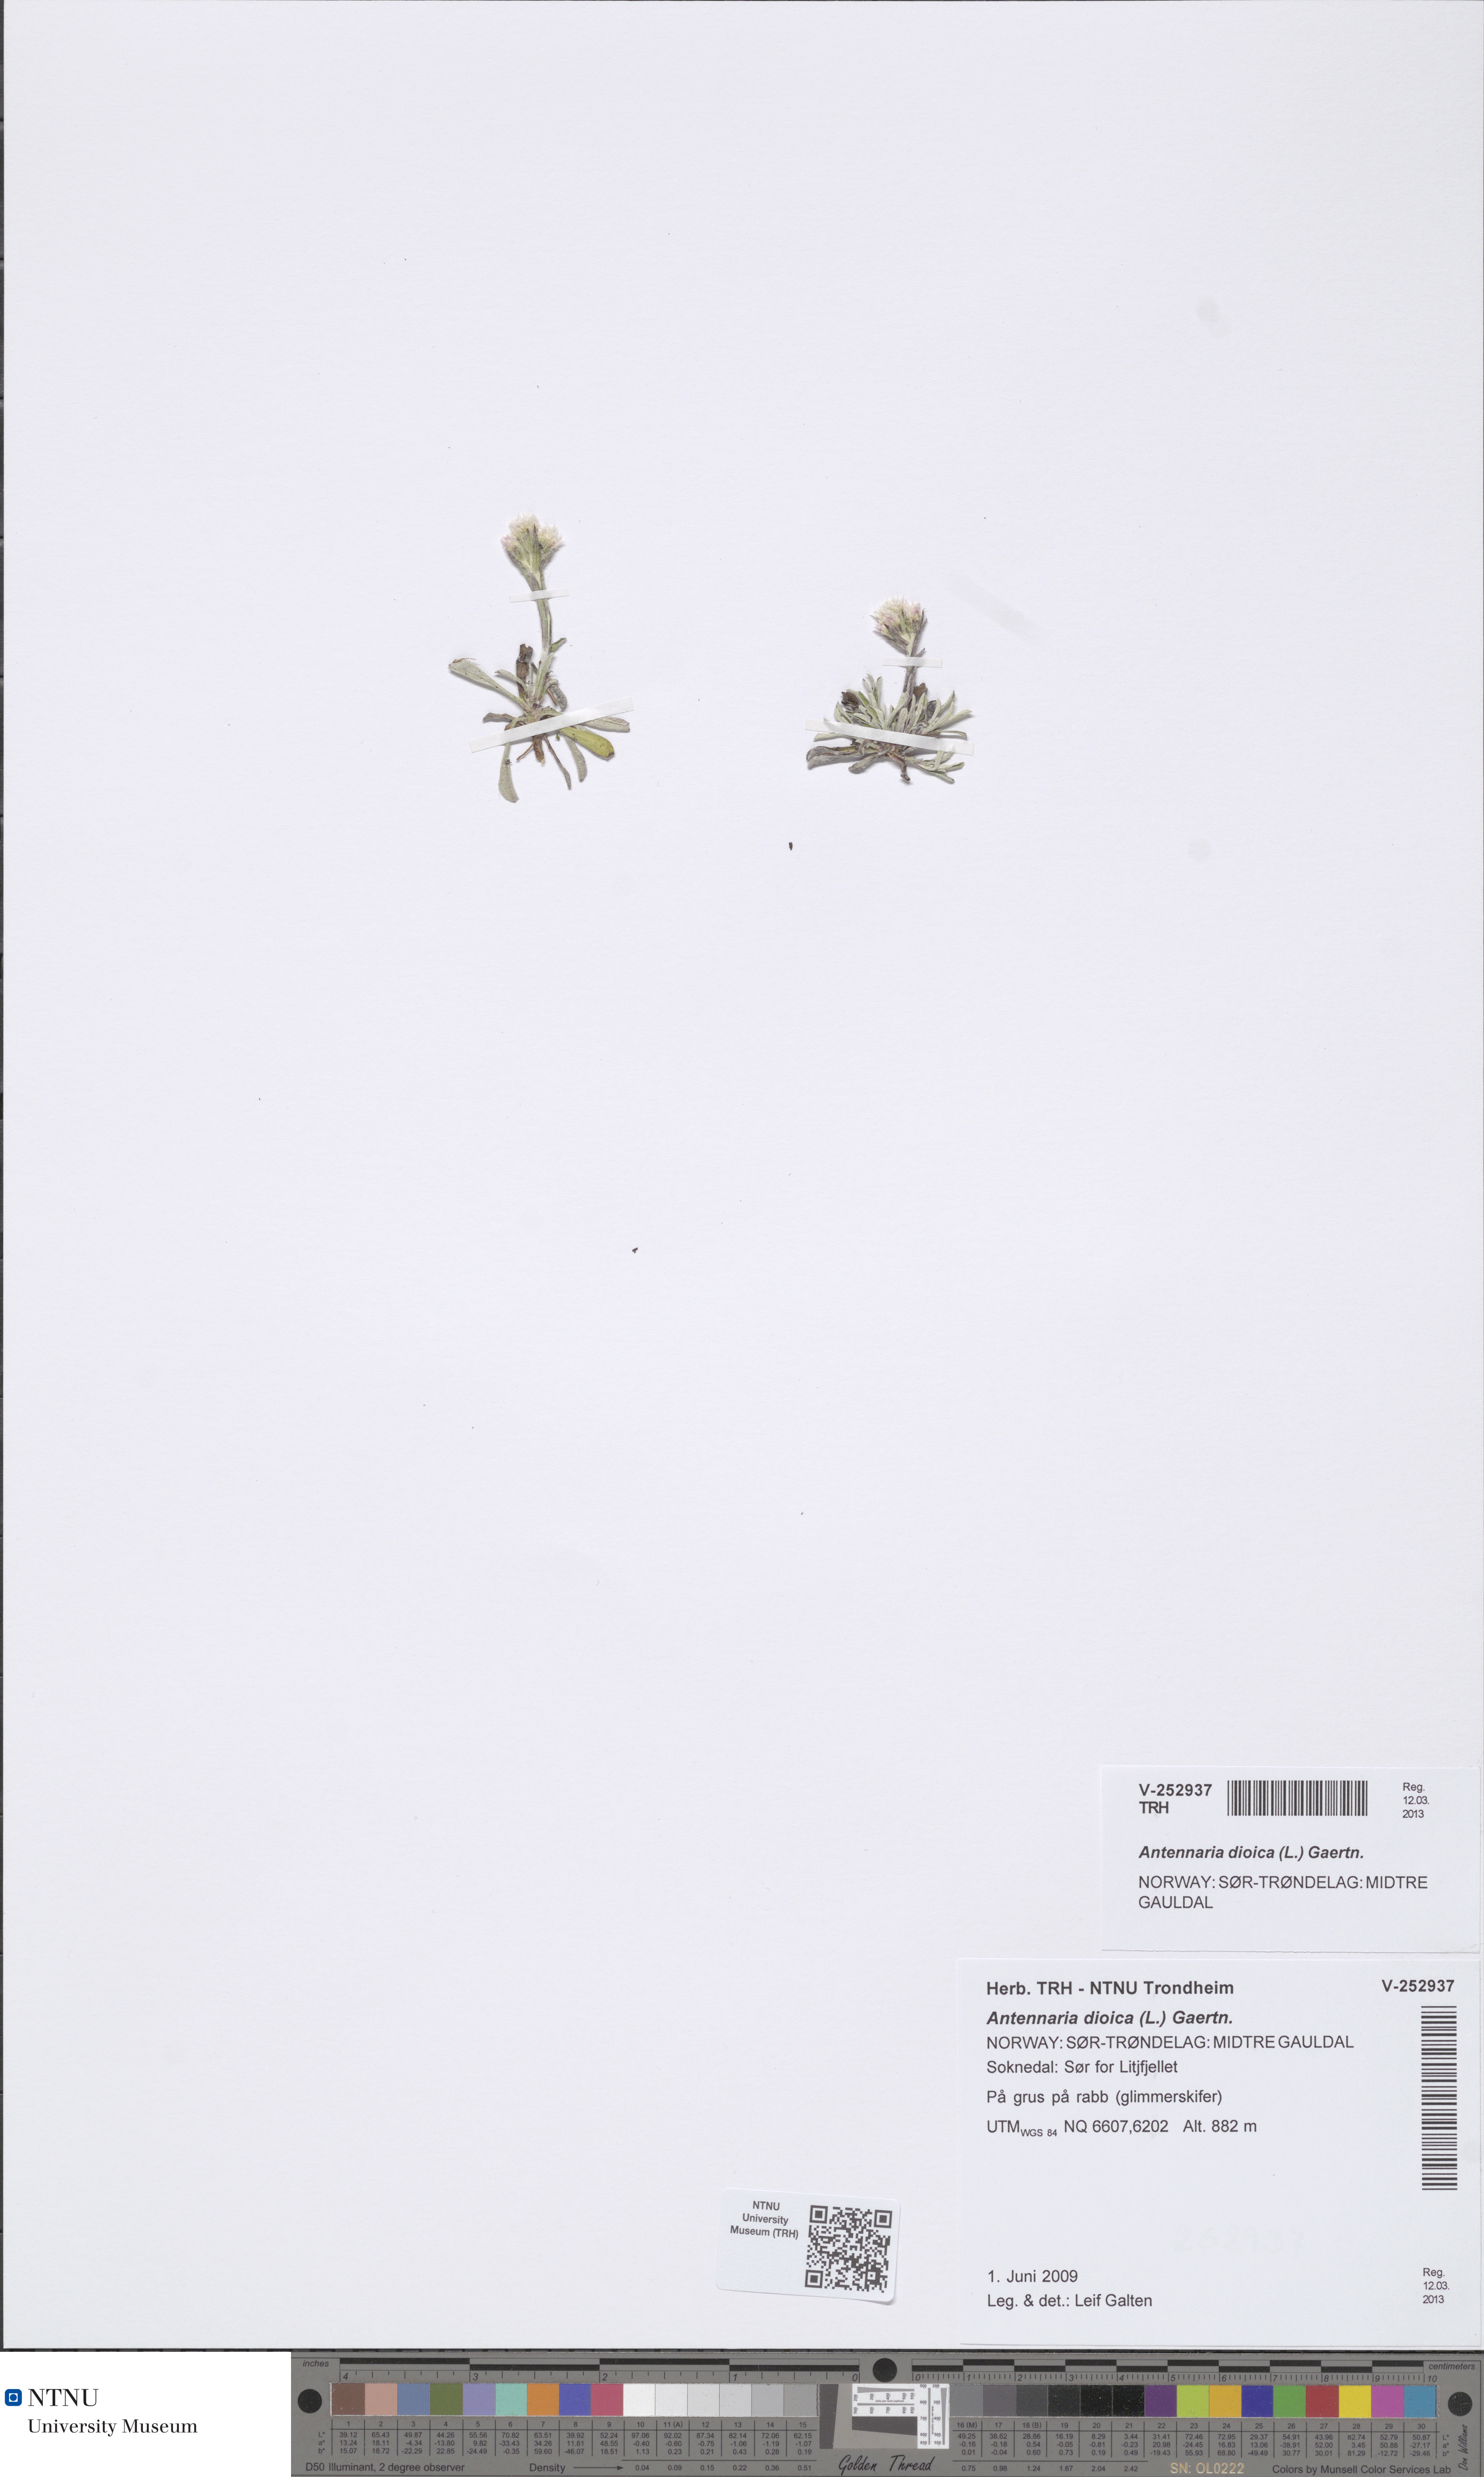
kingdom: Plantae
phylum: Tracheophyta
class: Magnoliopsida
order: Asterales
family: Asteraceae
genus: Antennaria
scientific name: Antennaria dioica
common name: Mountain everlasting
